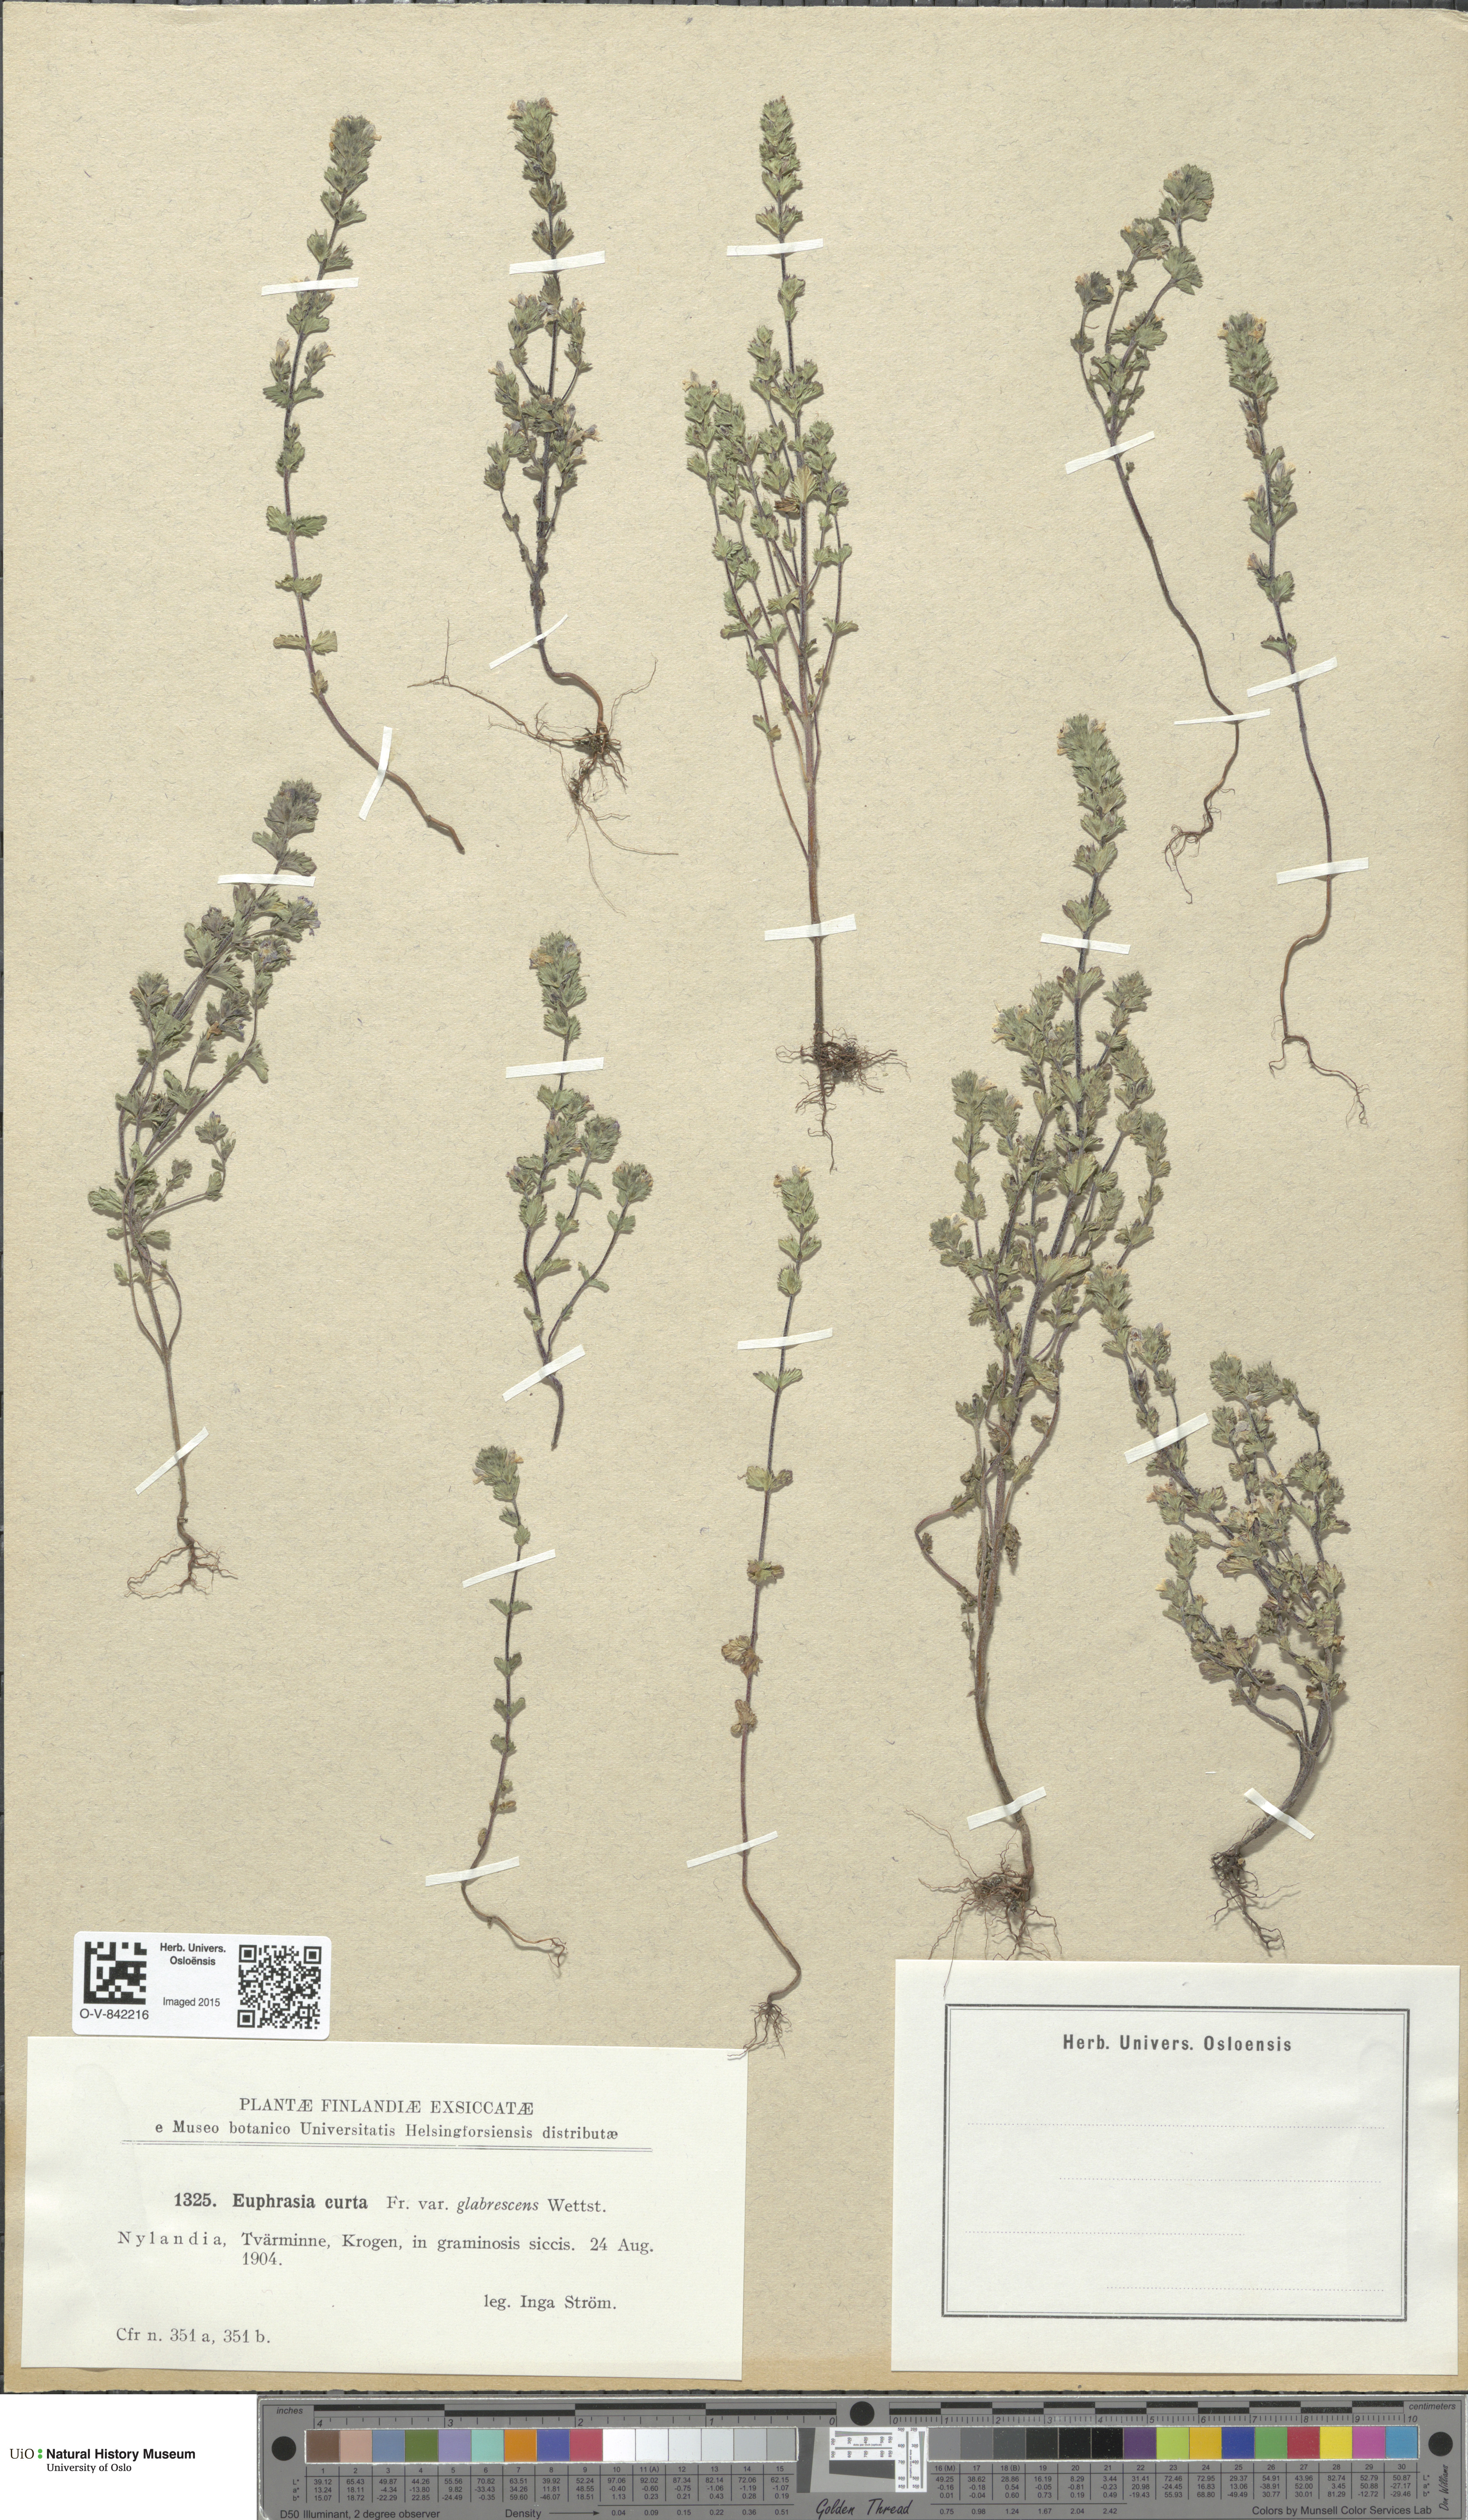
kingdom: Plantae
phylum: Tracheophyta
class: Magnoliopsida
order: Lamiales
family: Orobanchaceae
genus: Euphrasia
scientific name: Euphrasia micrantha
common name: Northern eyebright
